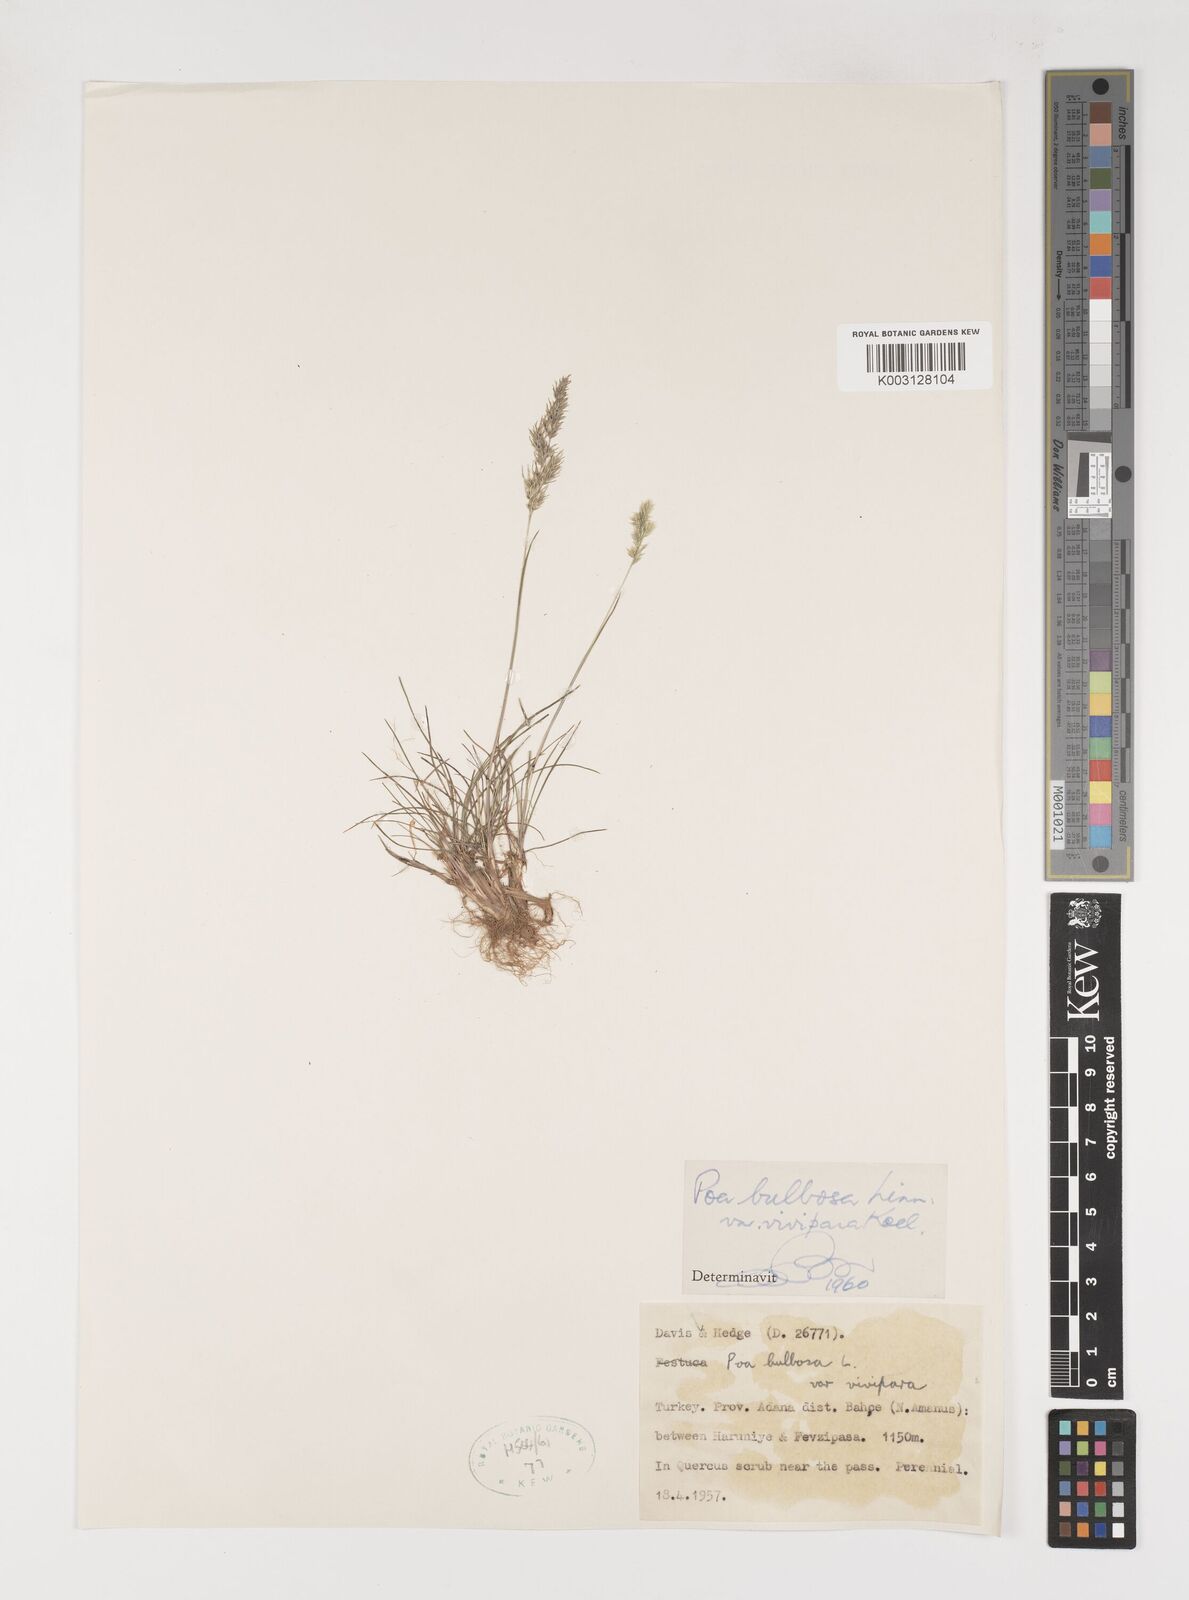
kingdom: Plantae
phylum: Tracheophyta
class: Liliopsida
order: Poales
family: Poaceae
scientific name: Poaceae
